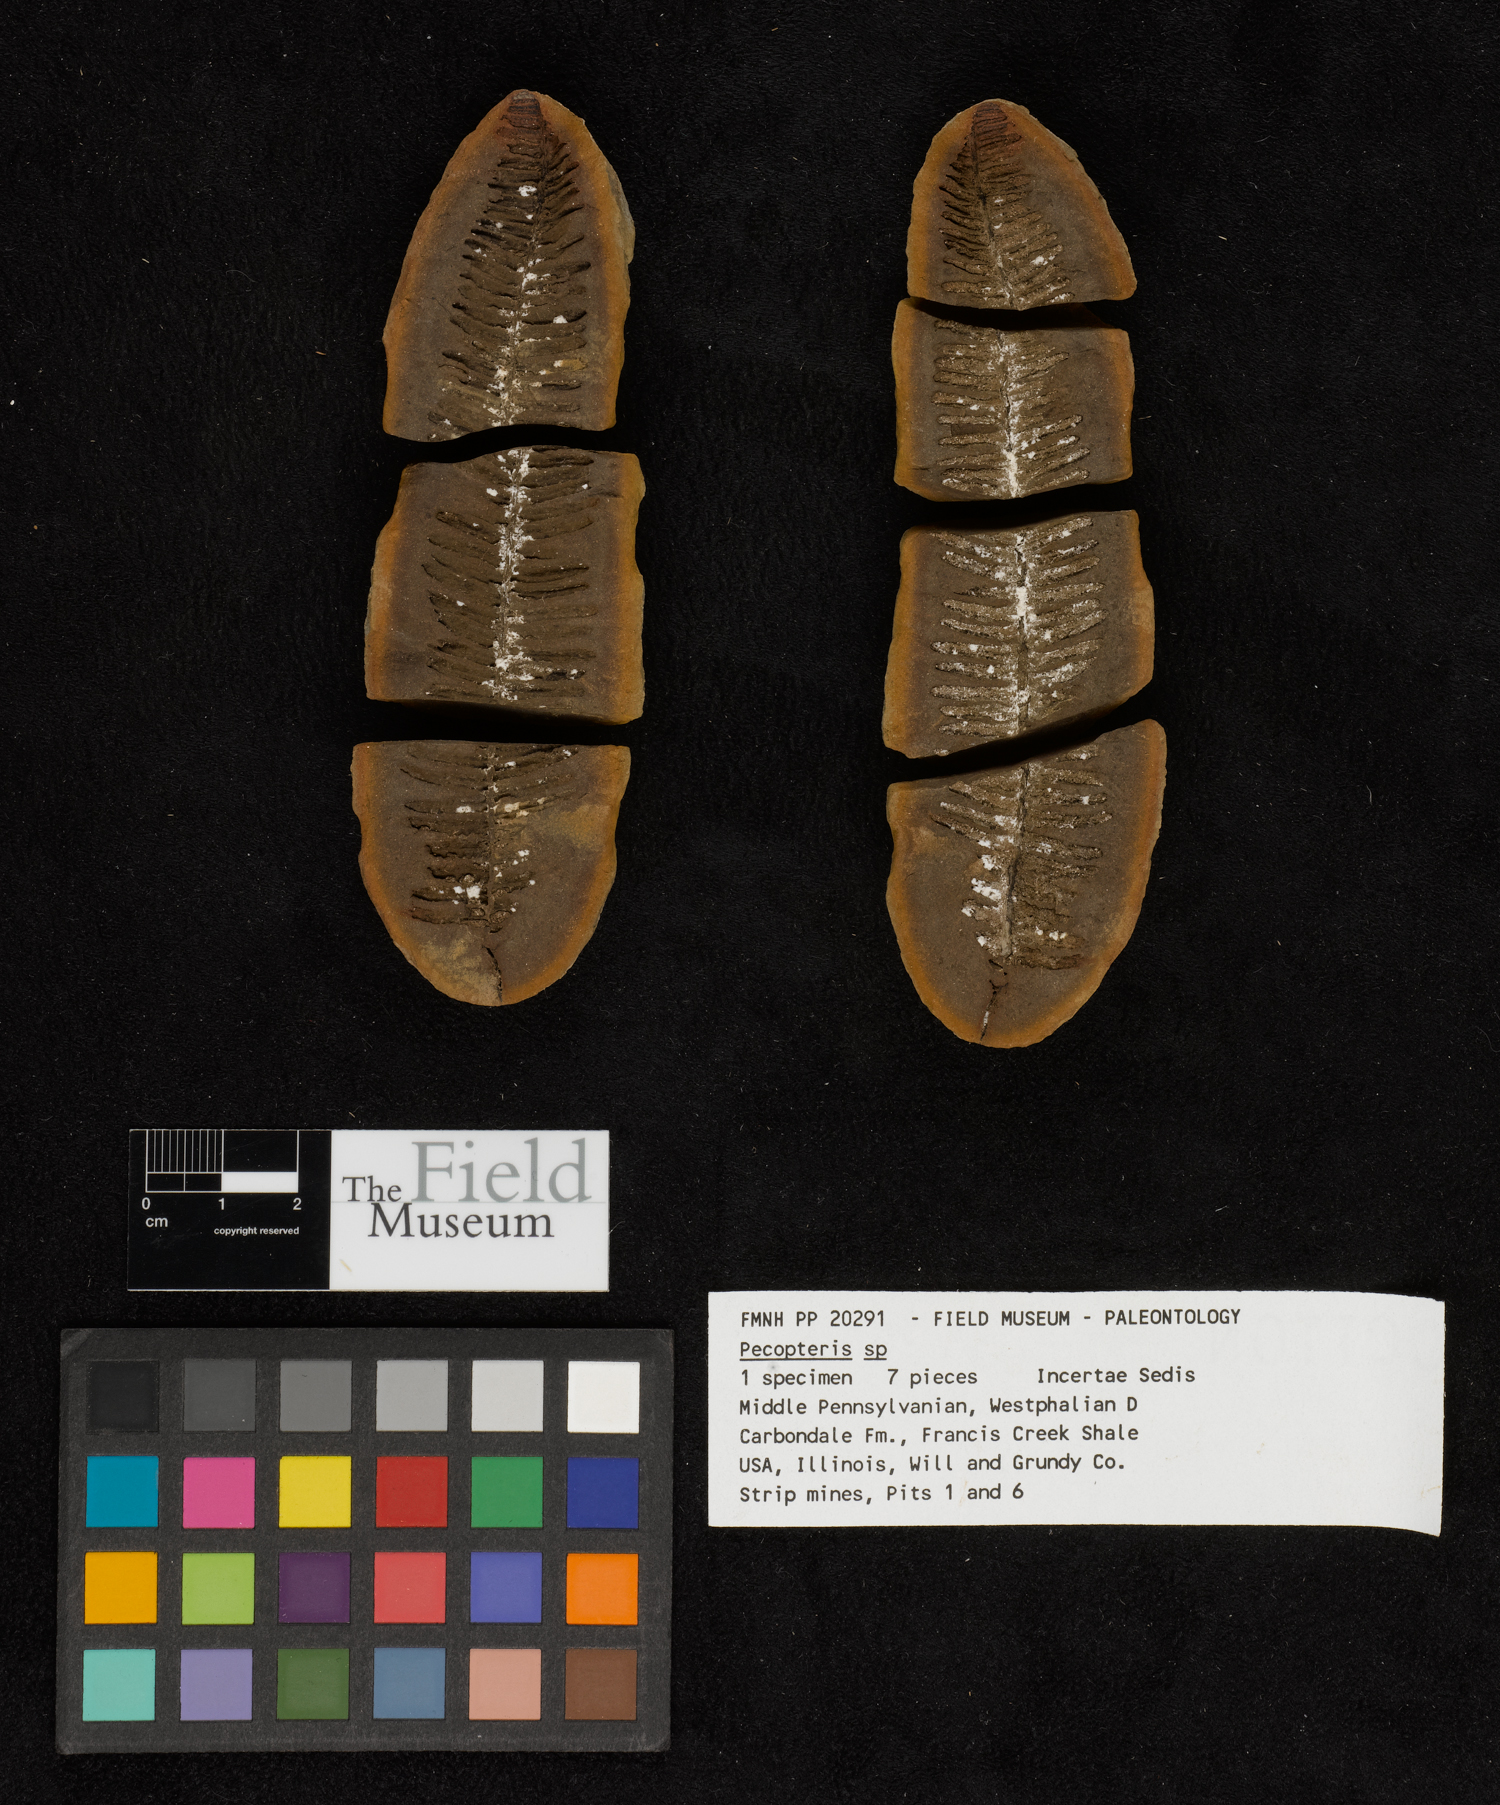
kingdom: Plantae
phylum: Tracheophyta
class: Polypodiopsida
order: Marattiales
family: Asterothecaceae
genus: Pecopteris
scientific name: Pecopteris
